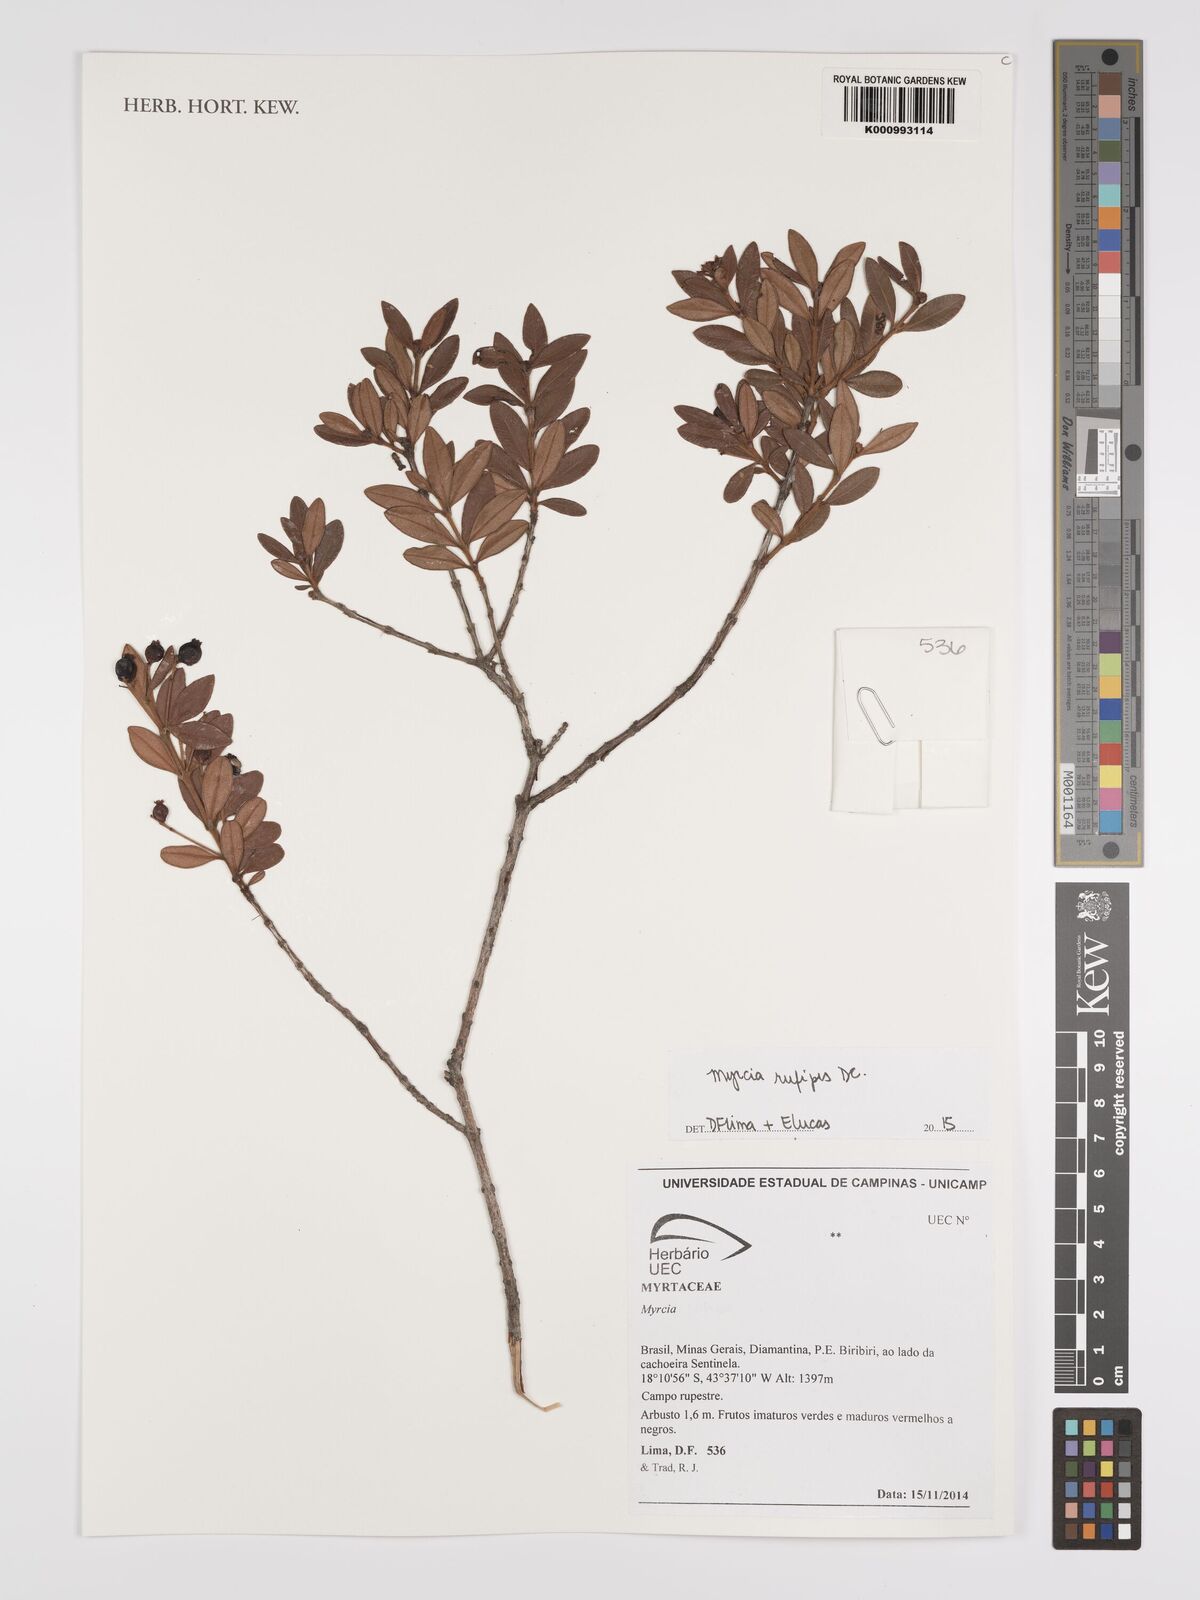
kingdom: Plantae
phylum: Tracheophyta
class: Magnoliopsida
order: Myrtales
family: Myrtaceae
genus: Myrcia
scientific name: Myrcia rufipes
